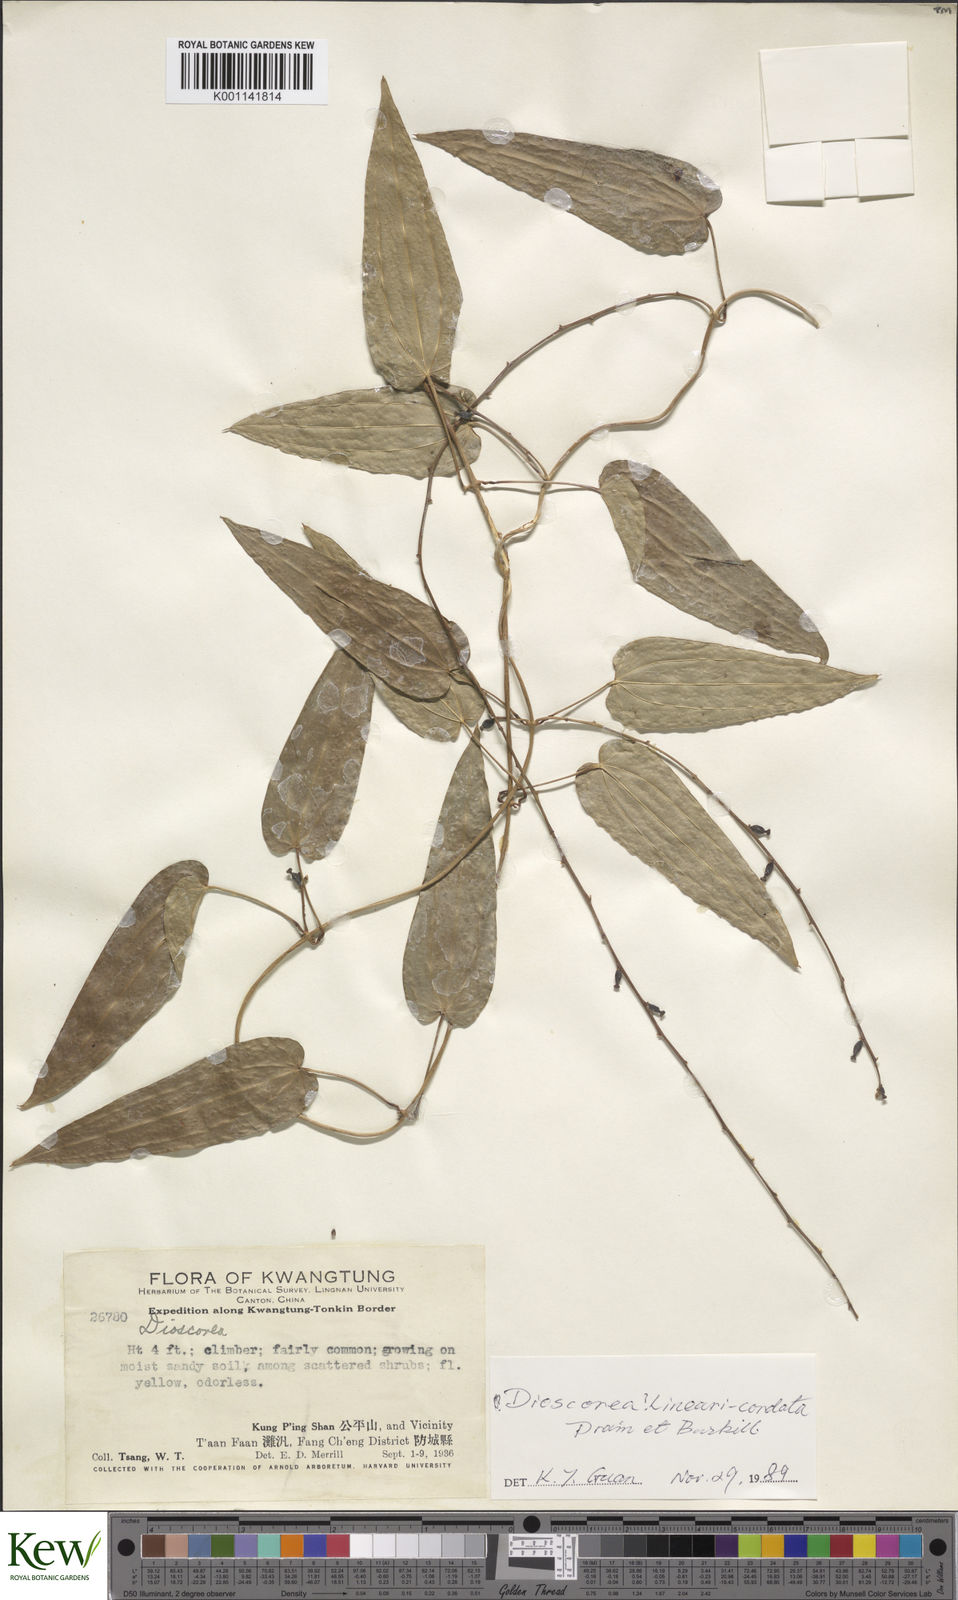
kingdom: Plantae
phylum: Tracheophyta
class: Liliopsida
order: Dioscoreales
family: Dioscoreaceae
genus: Dioscorea
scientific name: Dioscorea linearicordata
